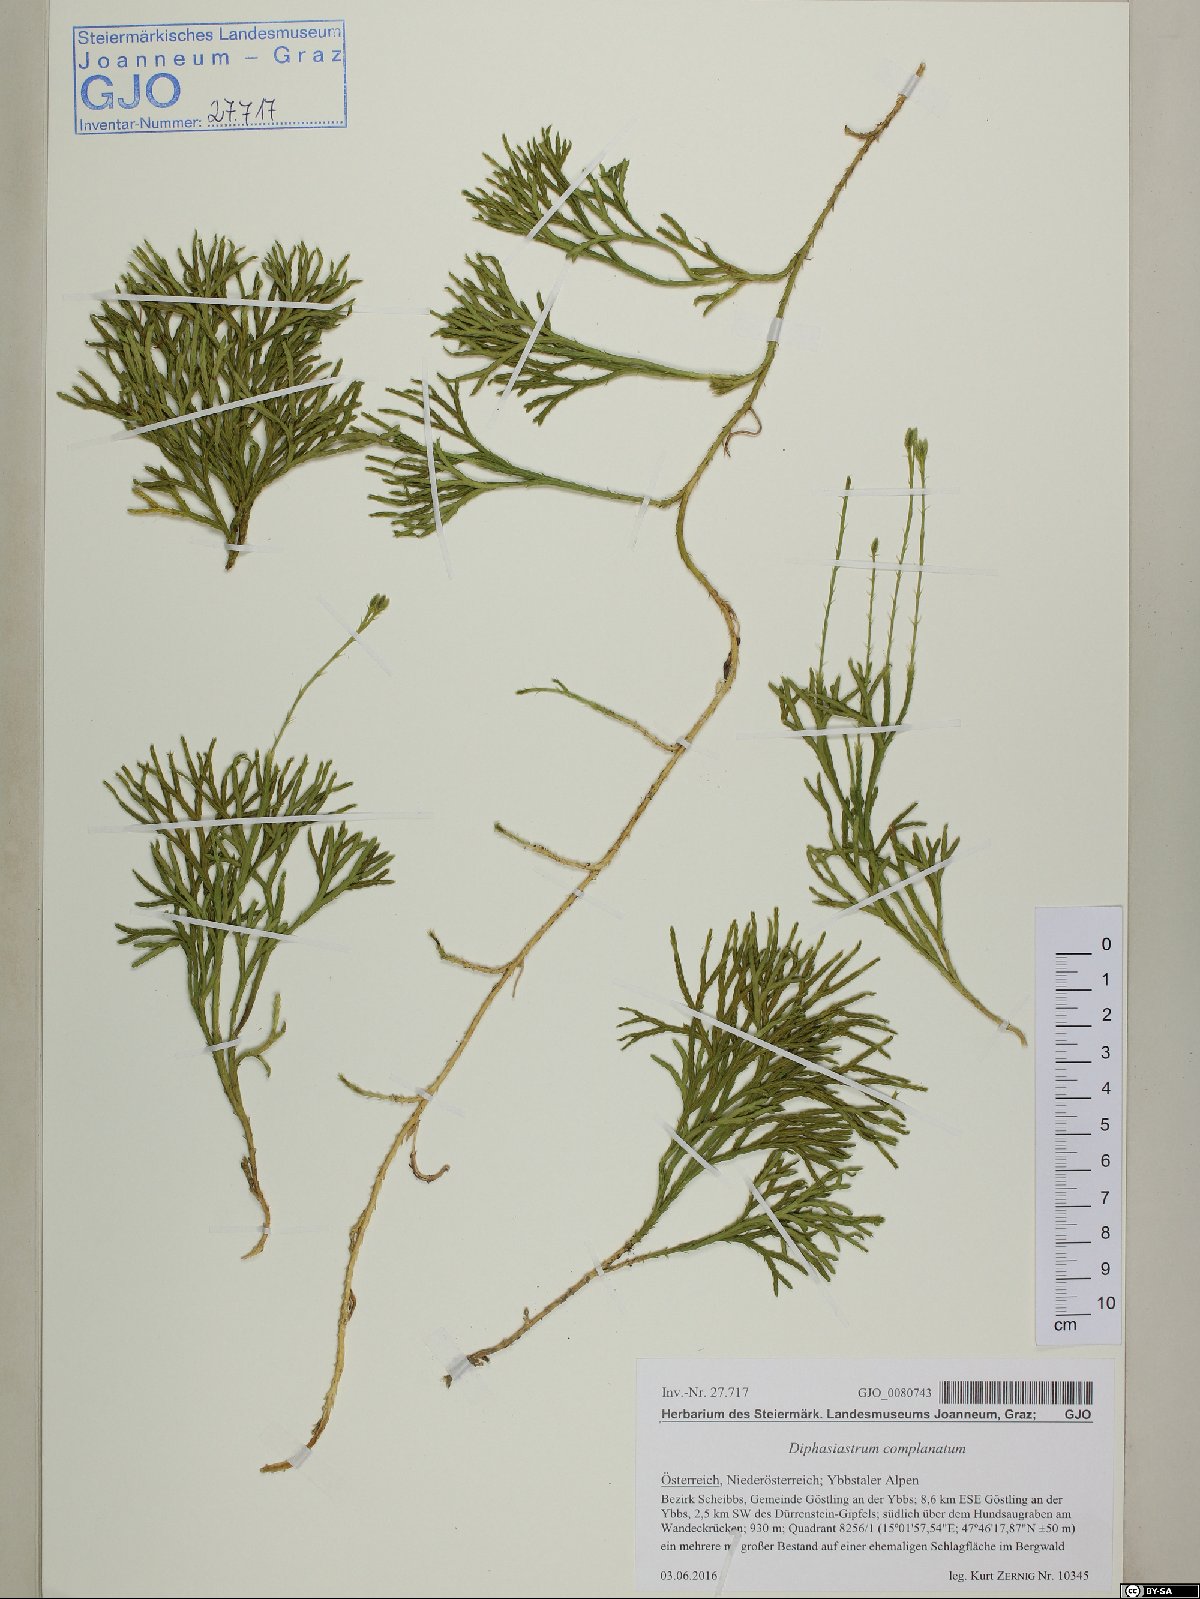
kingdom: Plantae
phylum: Tracheophyta
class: Lycopodiopsida
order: Lycopodiales
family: Lycopodiaceae
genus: Diphasiastrum
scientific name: Diphasiastrum complanatum
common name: Northern running-pine
